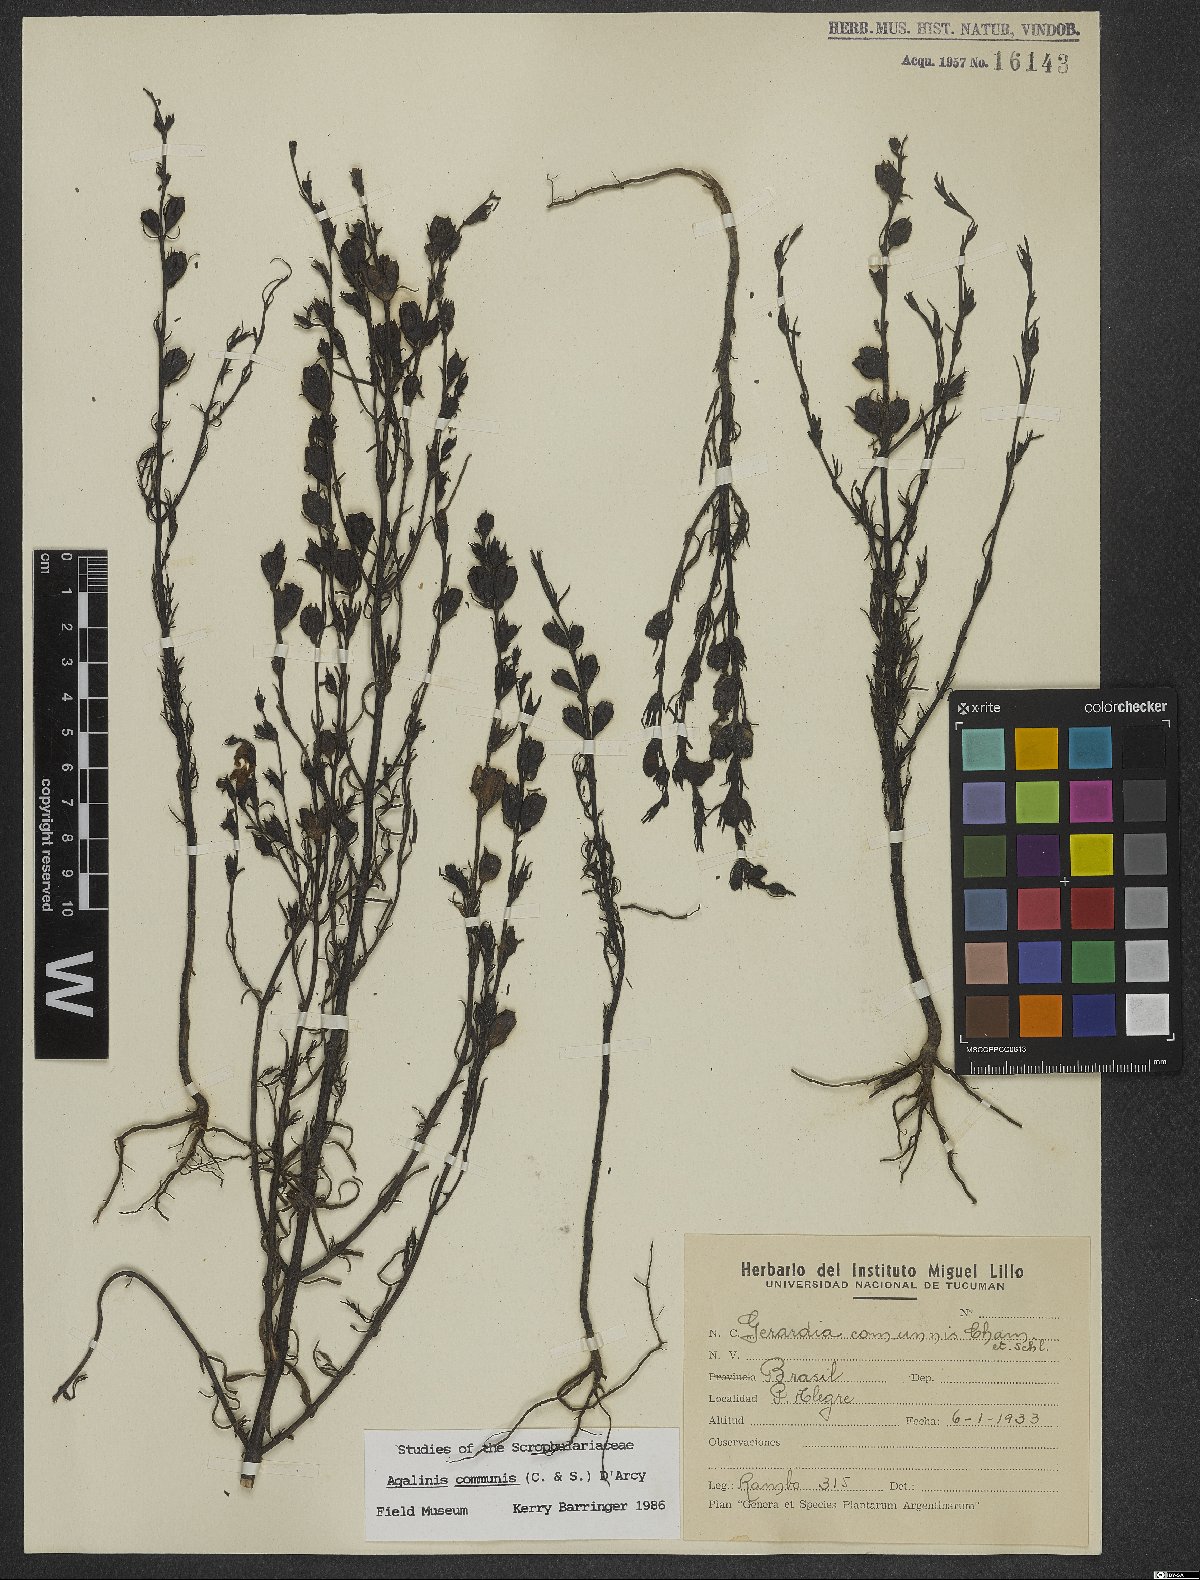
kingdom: Plantae
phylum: Tracheophyta
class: Magnoliopsida
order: Lamiales
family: Scrophulariaceae
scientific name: Scrophulariaceae
